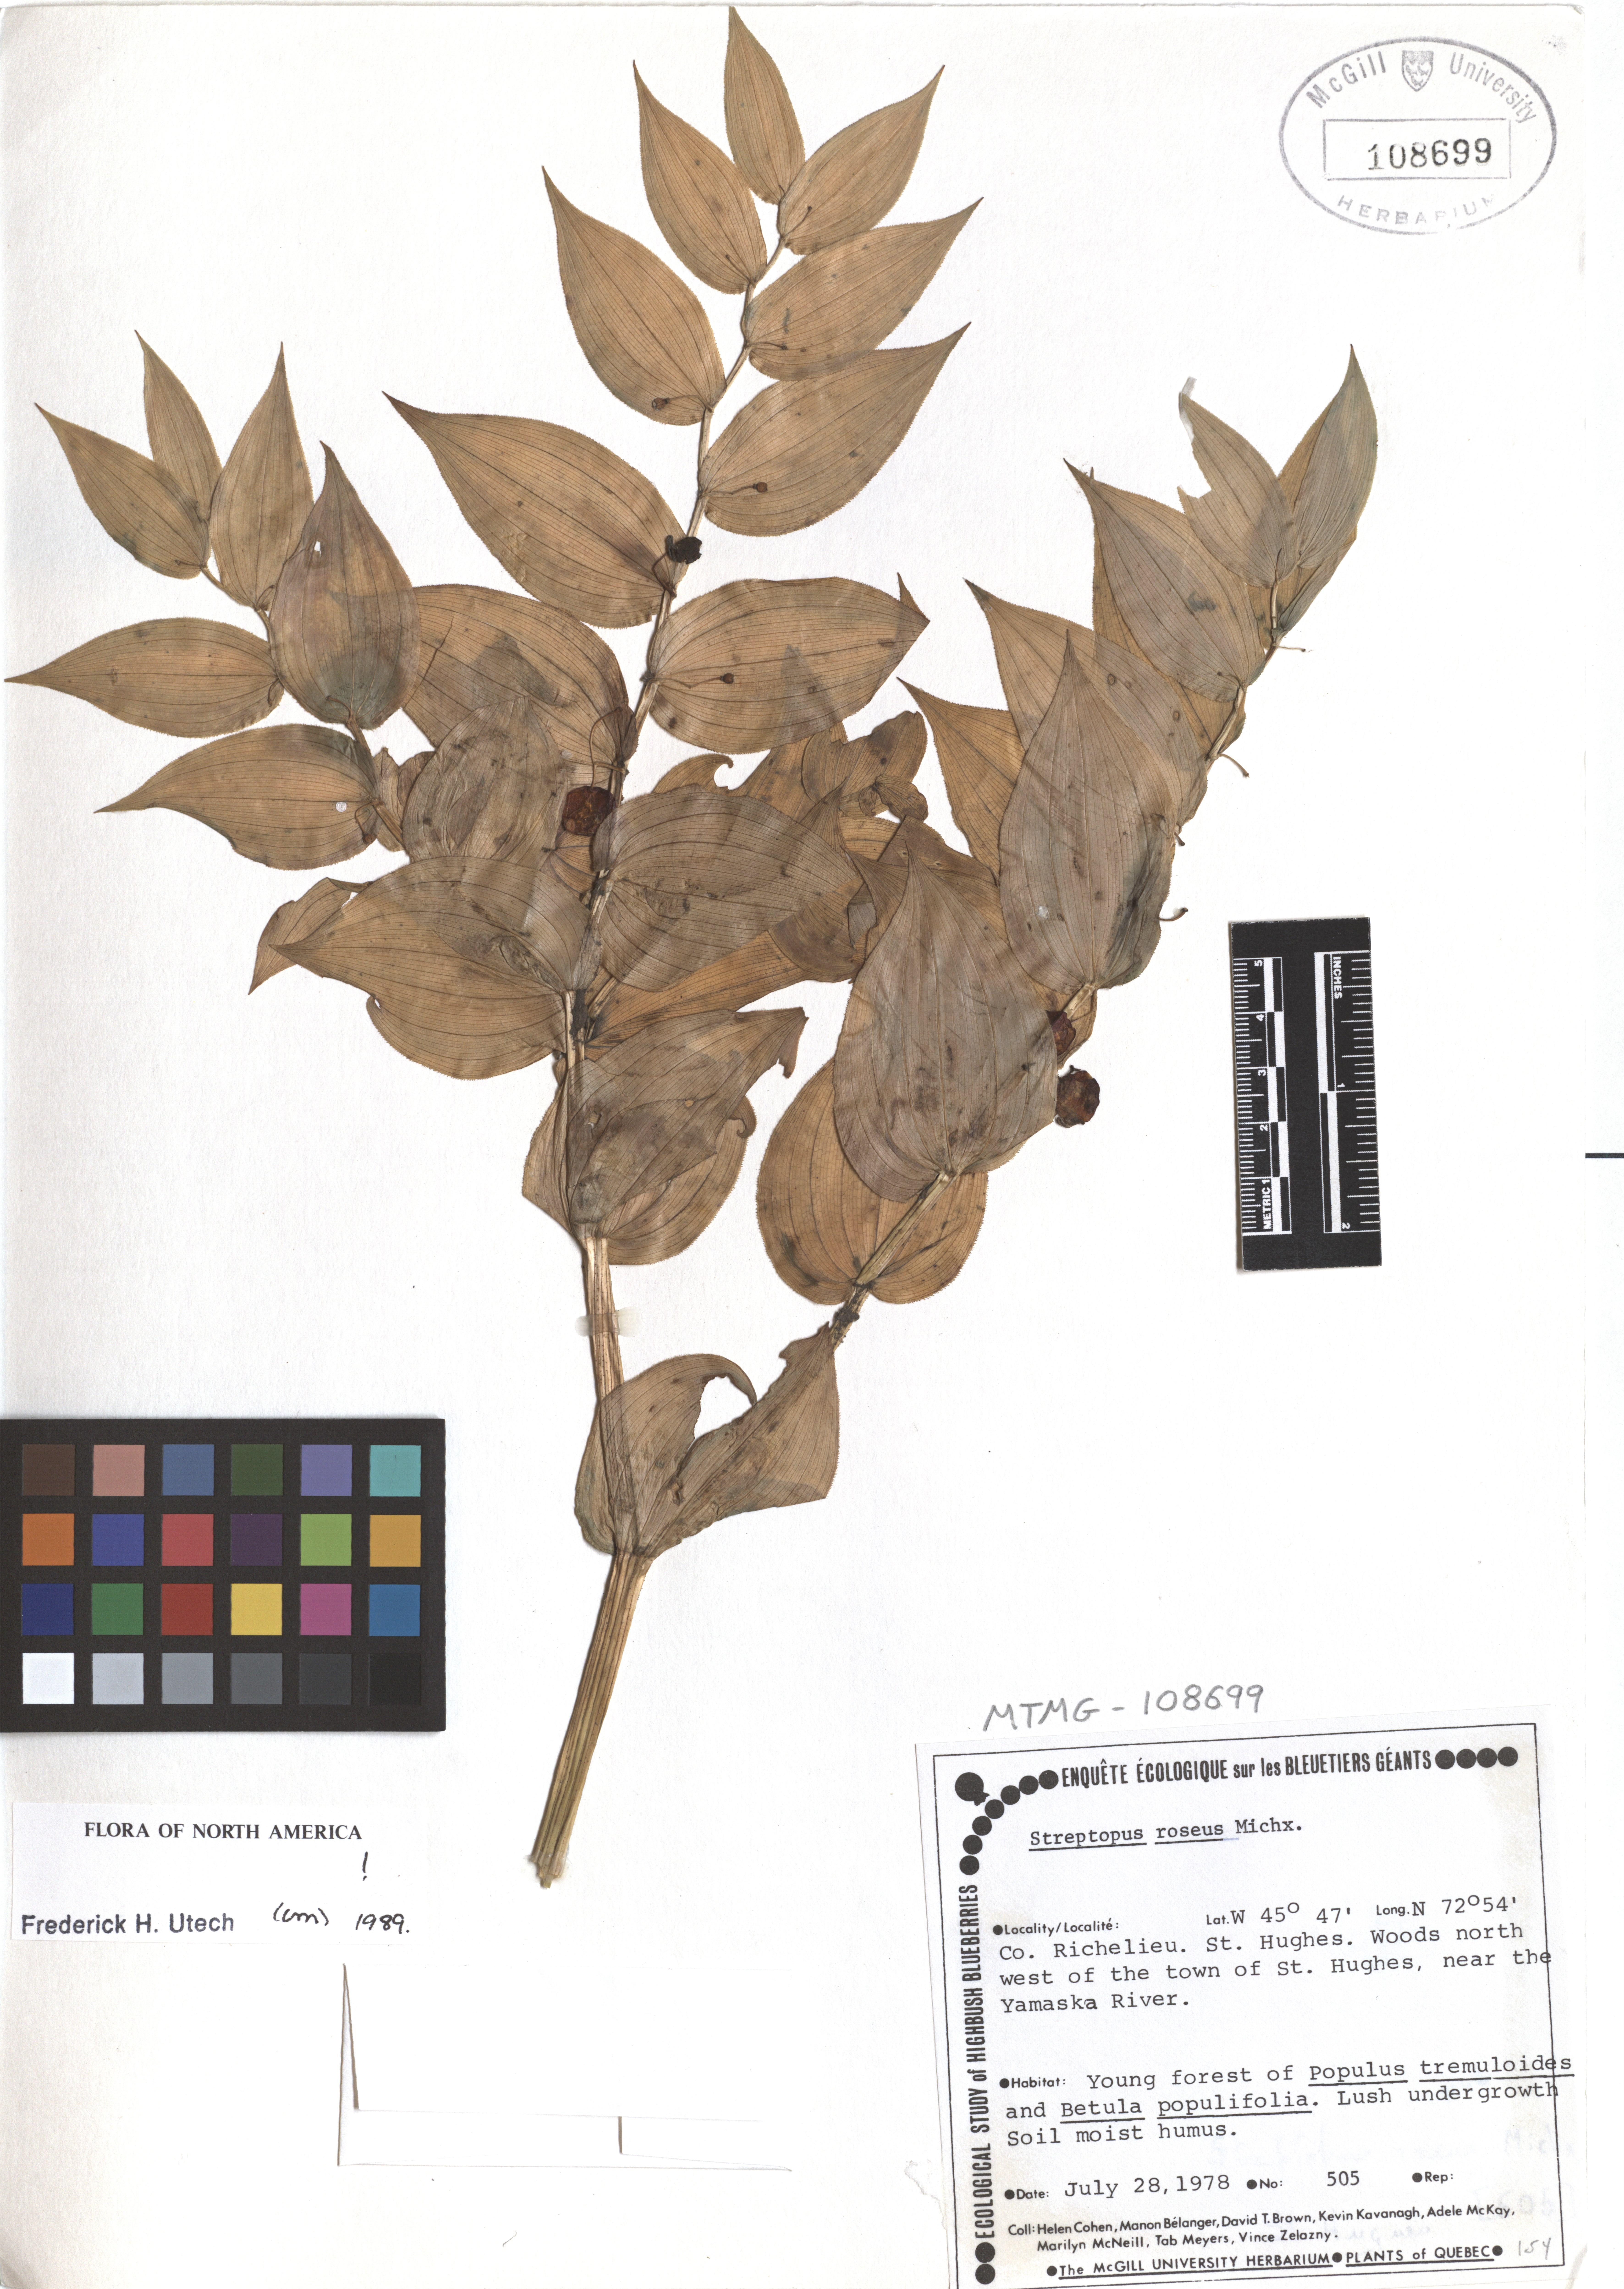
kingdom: Plantae
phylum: Tracheophyta
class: Liliopsida
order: Liliales
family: Liliaceae
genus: Streptopus
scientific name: Streptopus lanceolatus
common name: Rose mandarin
